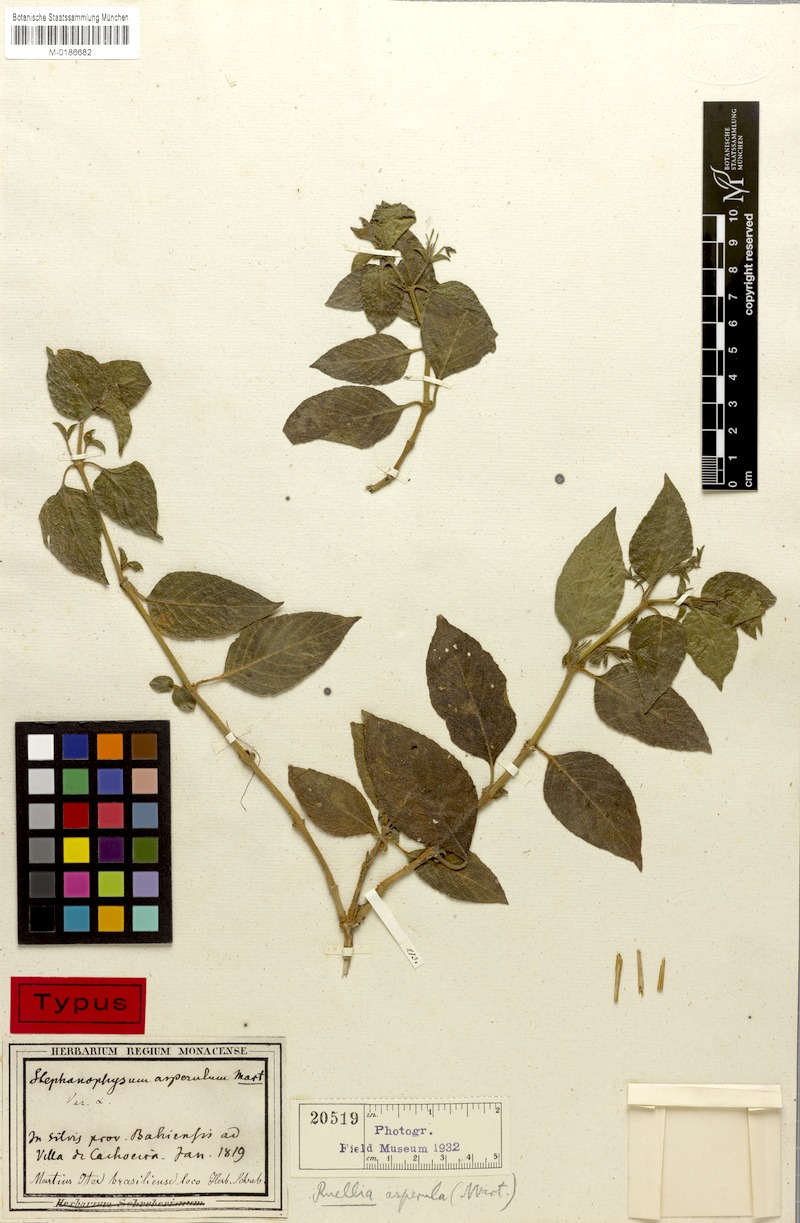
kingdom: Plantae
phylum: Tracheophyta
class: Magnoliopsida
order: Lamiales
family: Acanthaceae
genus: Ruellia
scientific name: Ruellia asperula
